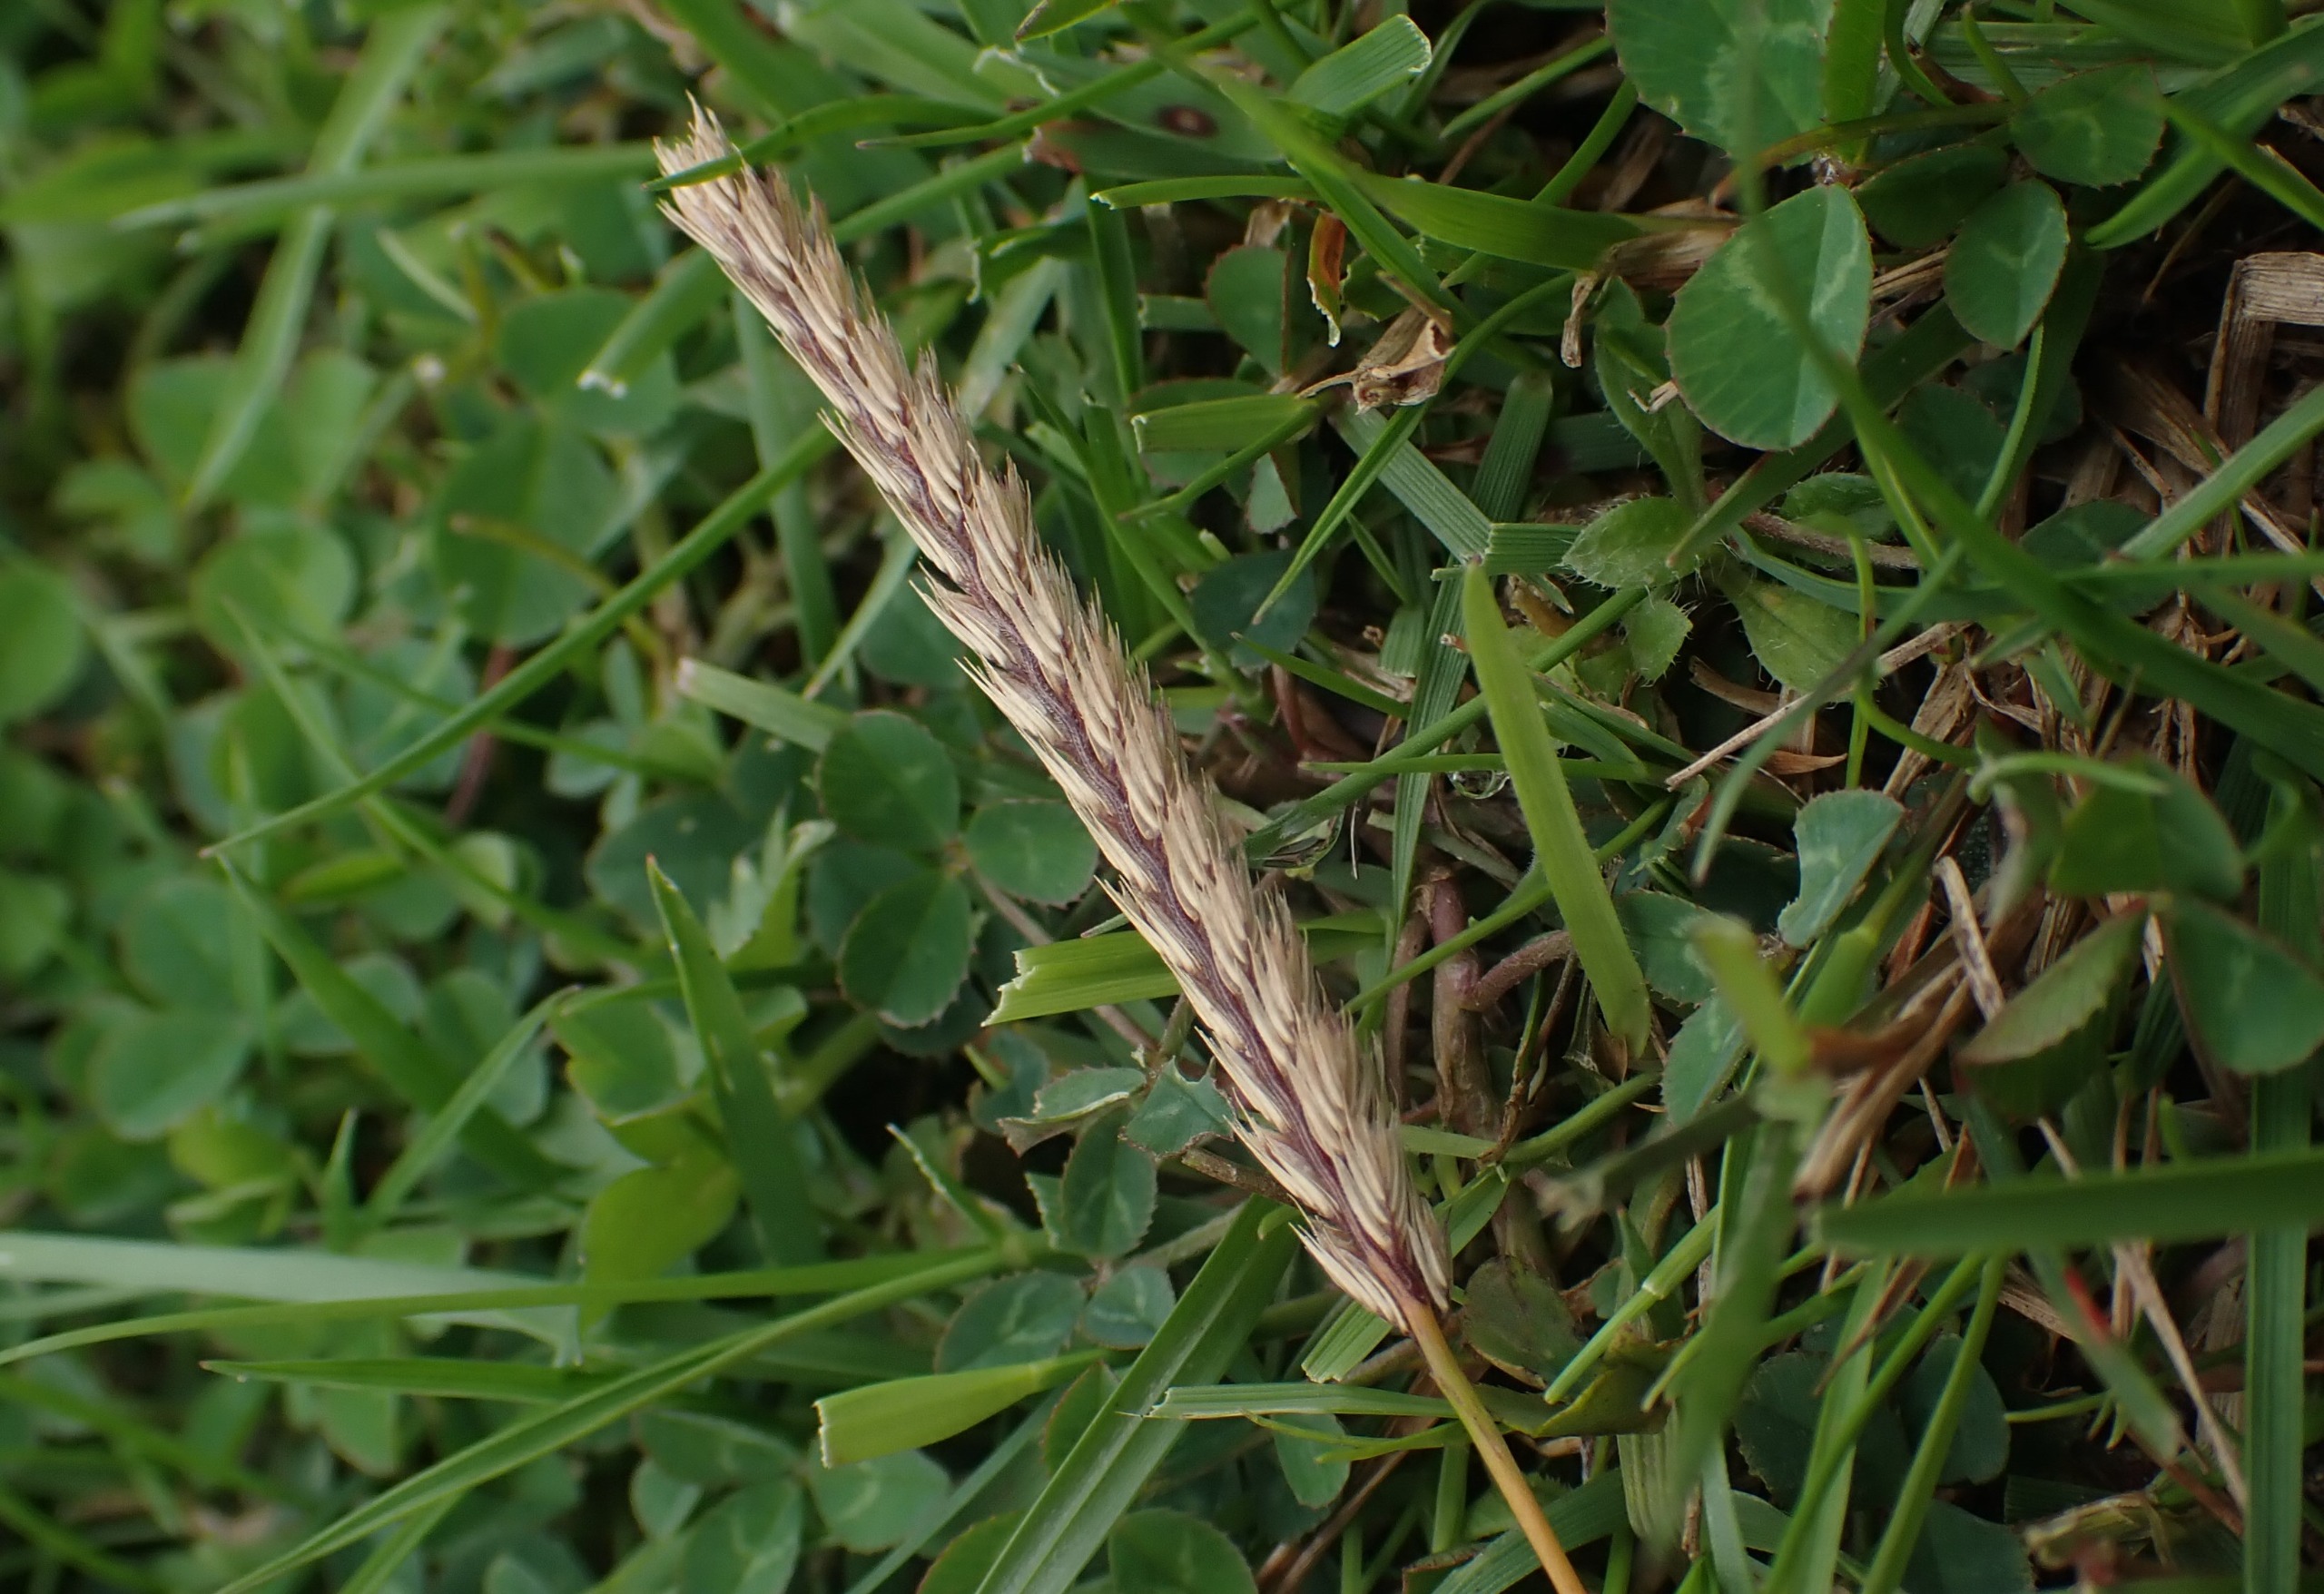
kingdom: Plantae
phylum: Tracheophyta
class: Liliopsida
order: Poales
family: Poaceae
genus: Cynosurus
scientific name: Cynosurus cristatus
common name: Kamgræs
